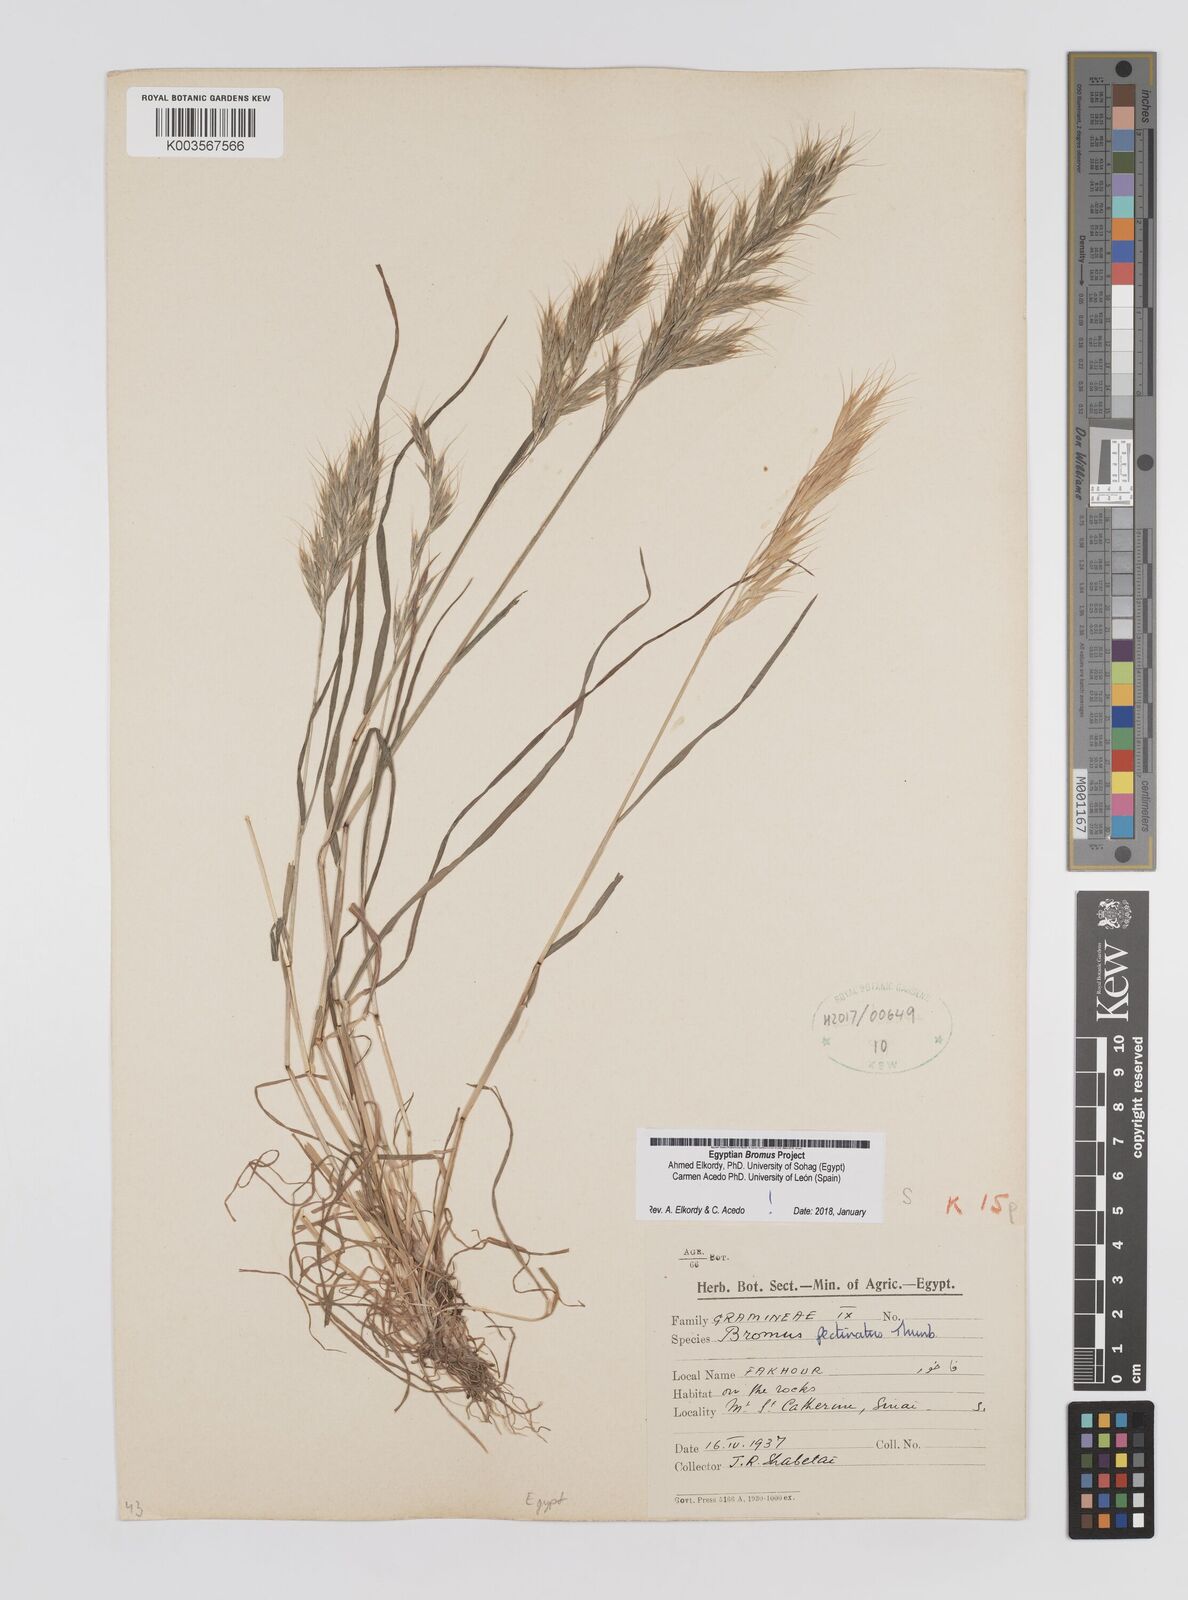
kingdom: Plantae
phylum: Tracheophyta
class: Liliopsida
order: Poales
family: Poaceae
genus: Bromus
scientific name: Bromus pectinatus
